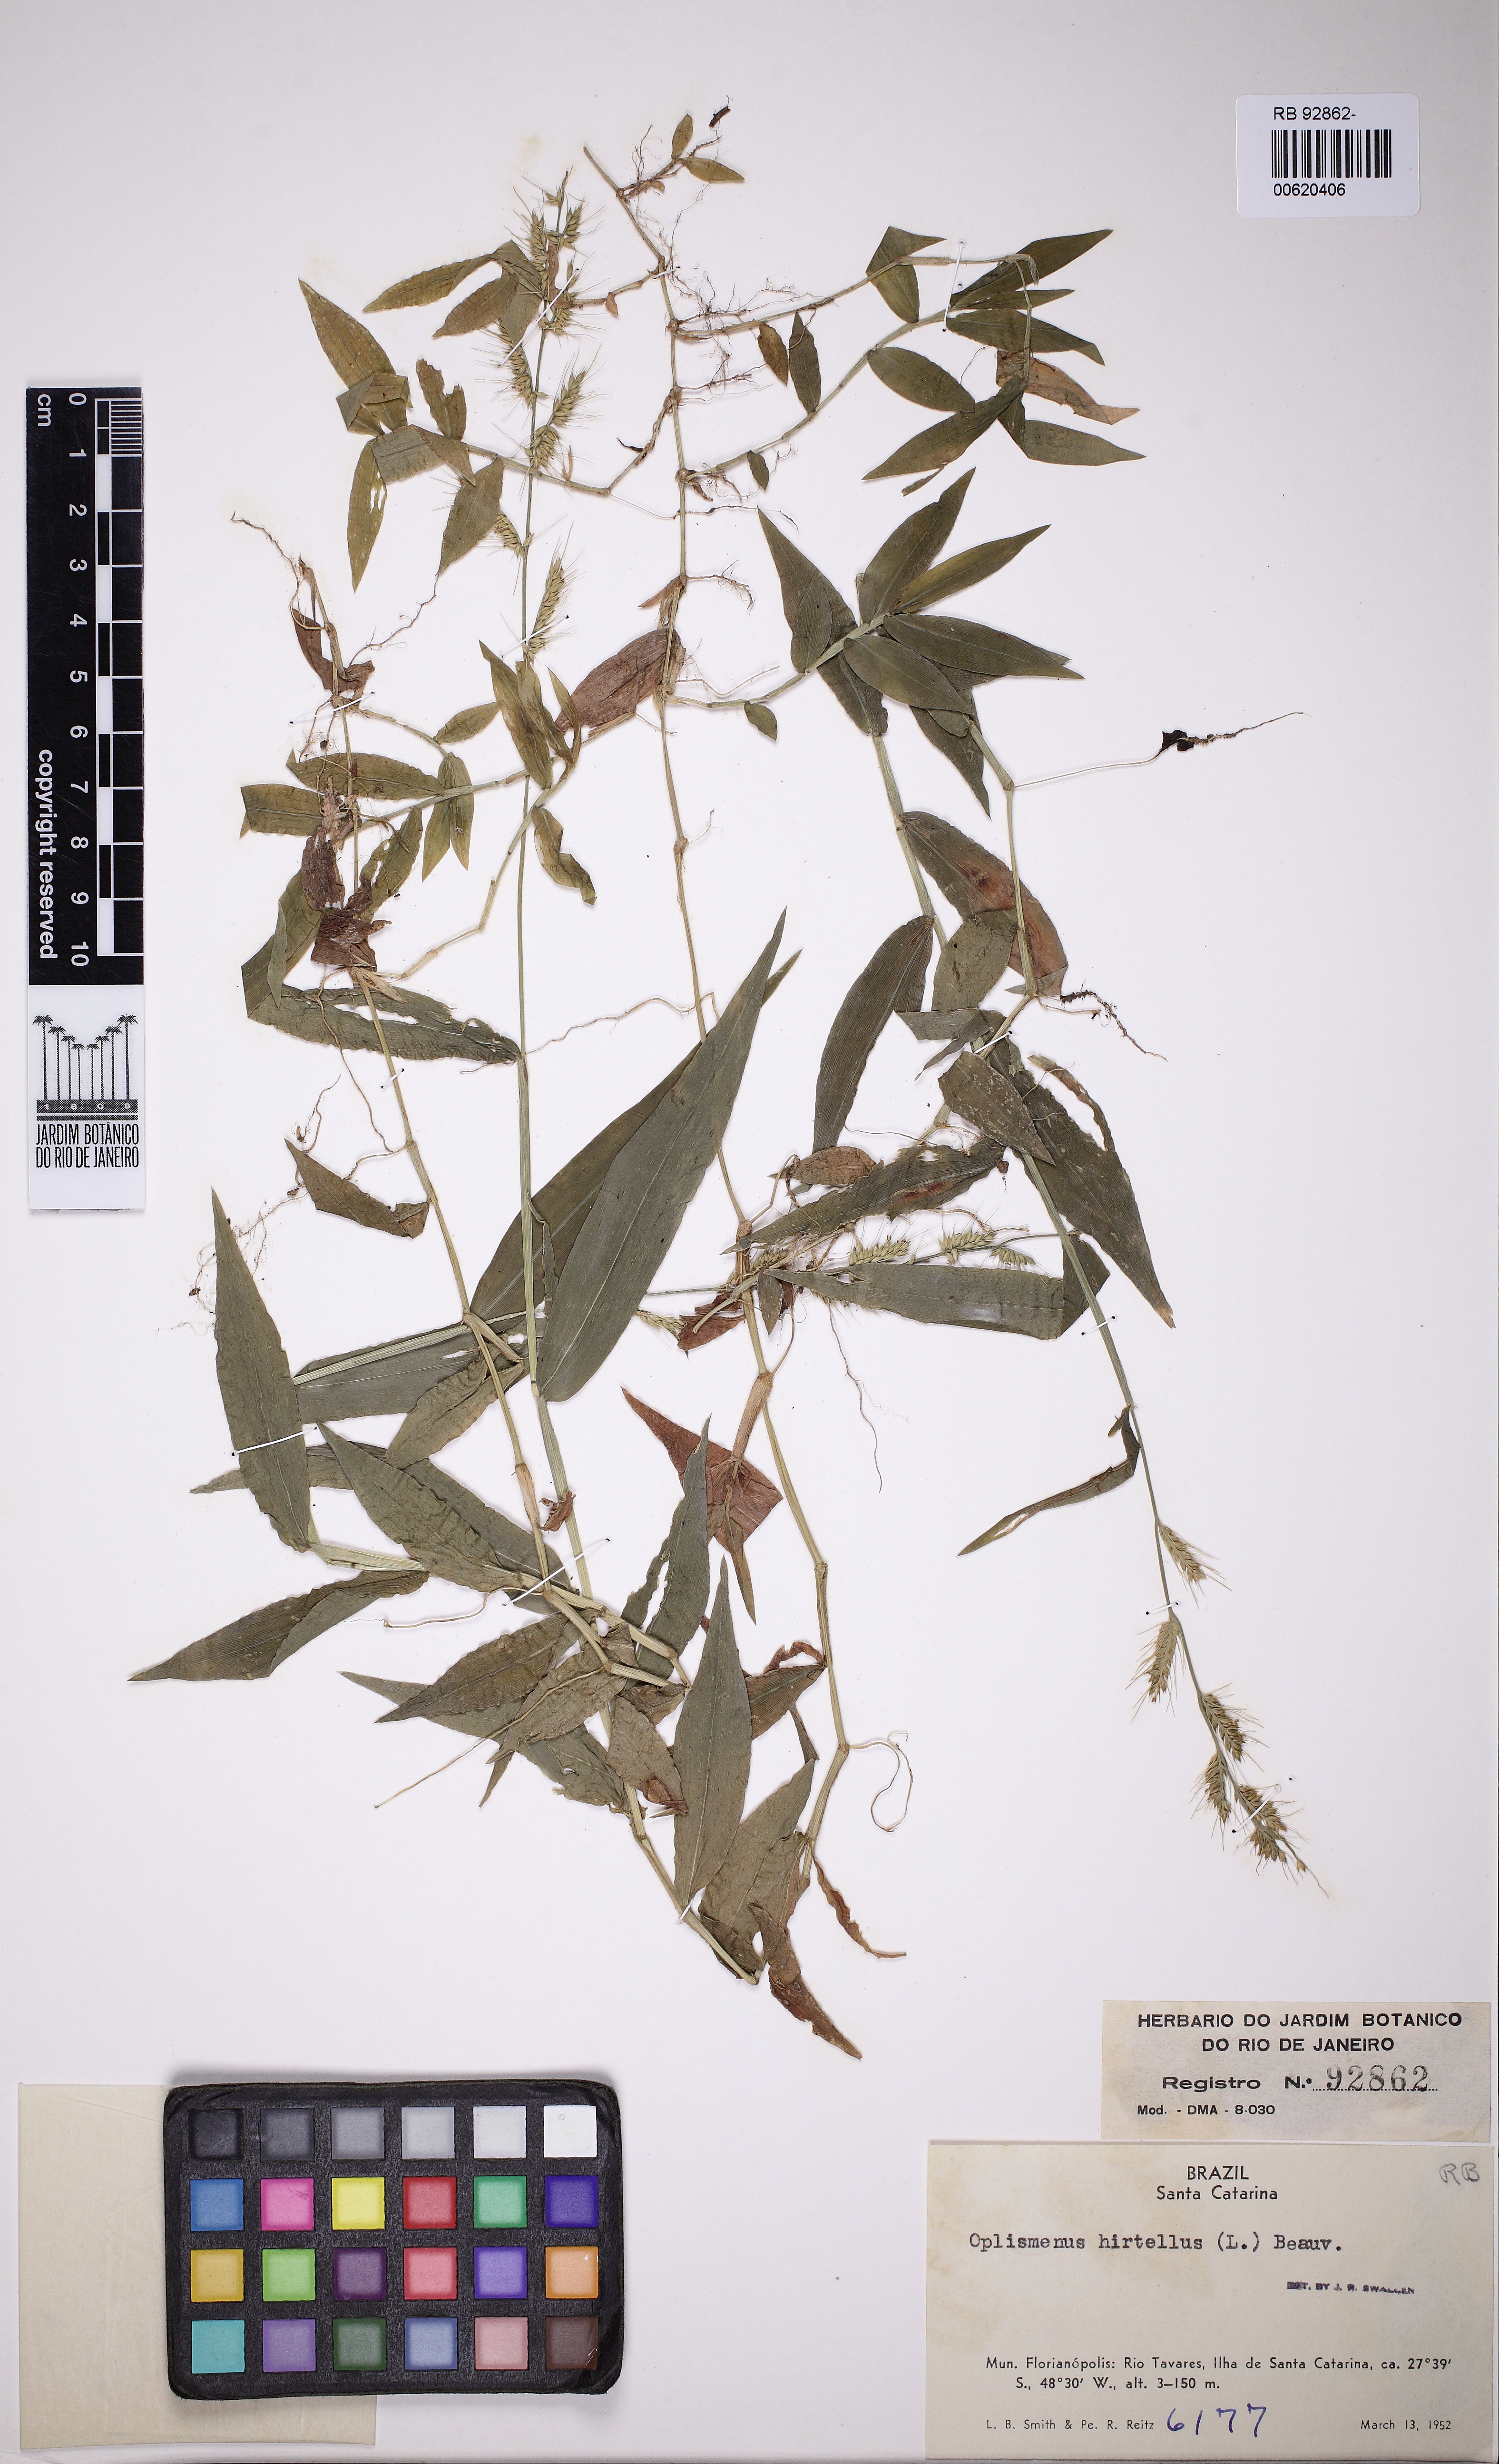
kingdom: Plantae
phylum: Tracheophyta
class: Liliopsida
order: Poales
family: Poaceae
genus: Oplismenus
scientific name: Oplismenus hirtellus
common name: Basketgrass
